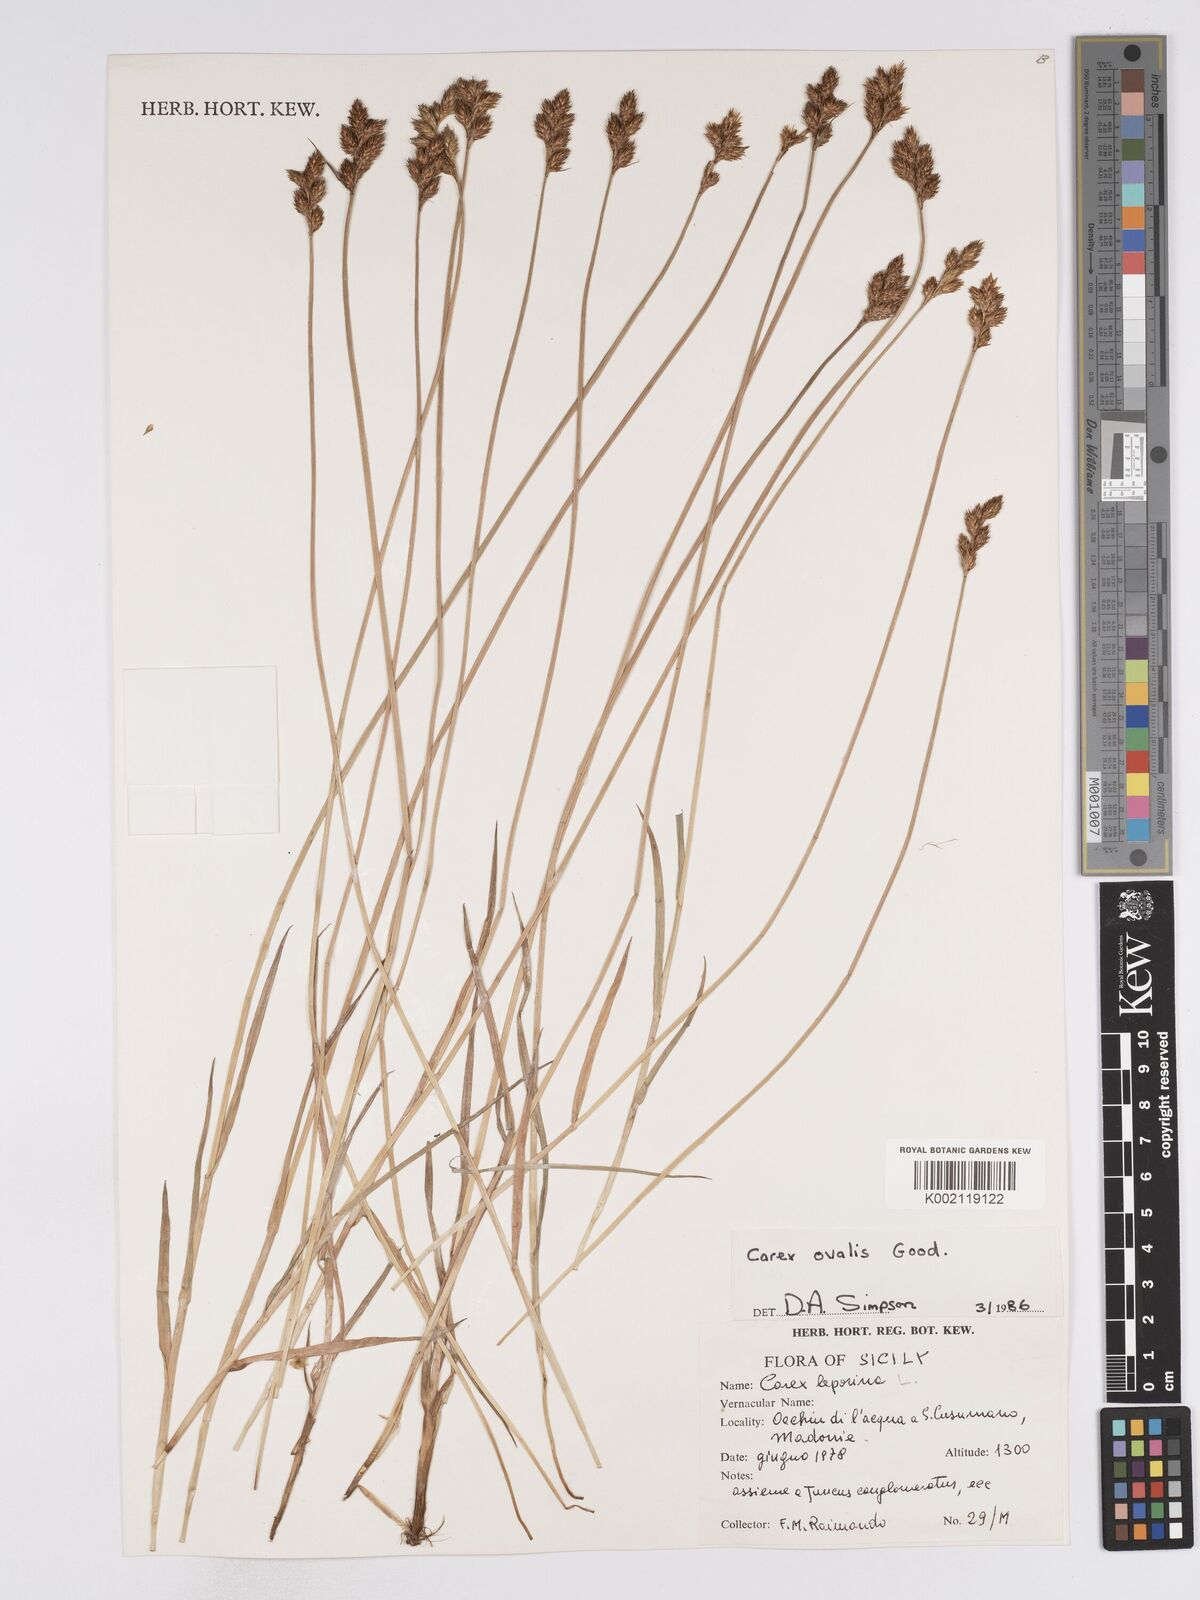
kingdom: Plantae
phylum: Tracheophyta
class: Liliopsida
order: Poales
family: Cyperaceae
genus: Carex
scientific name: Carex leporina
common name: Oval sedge
